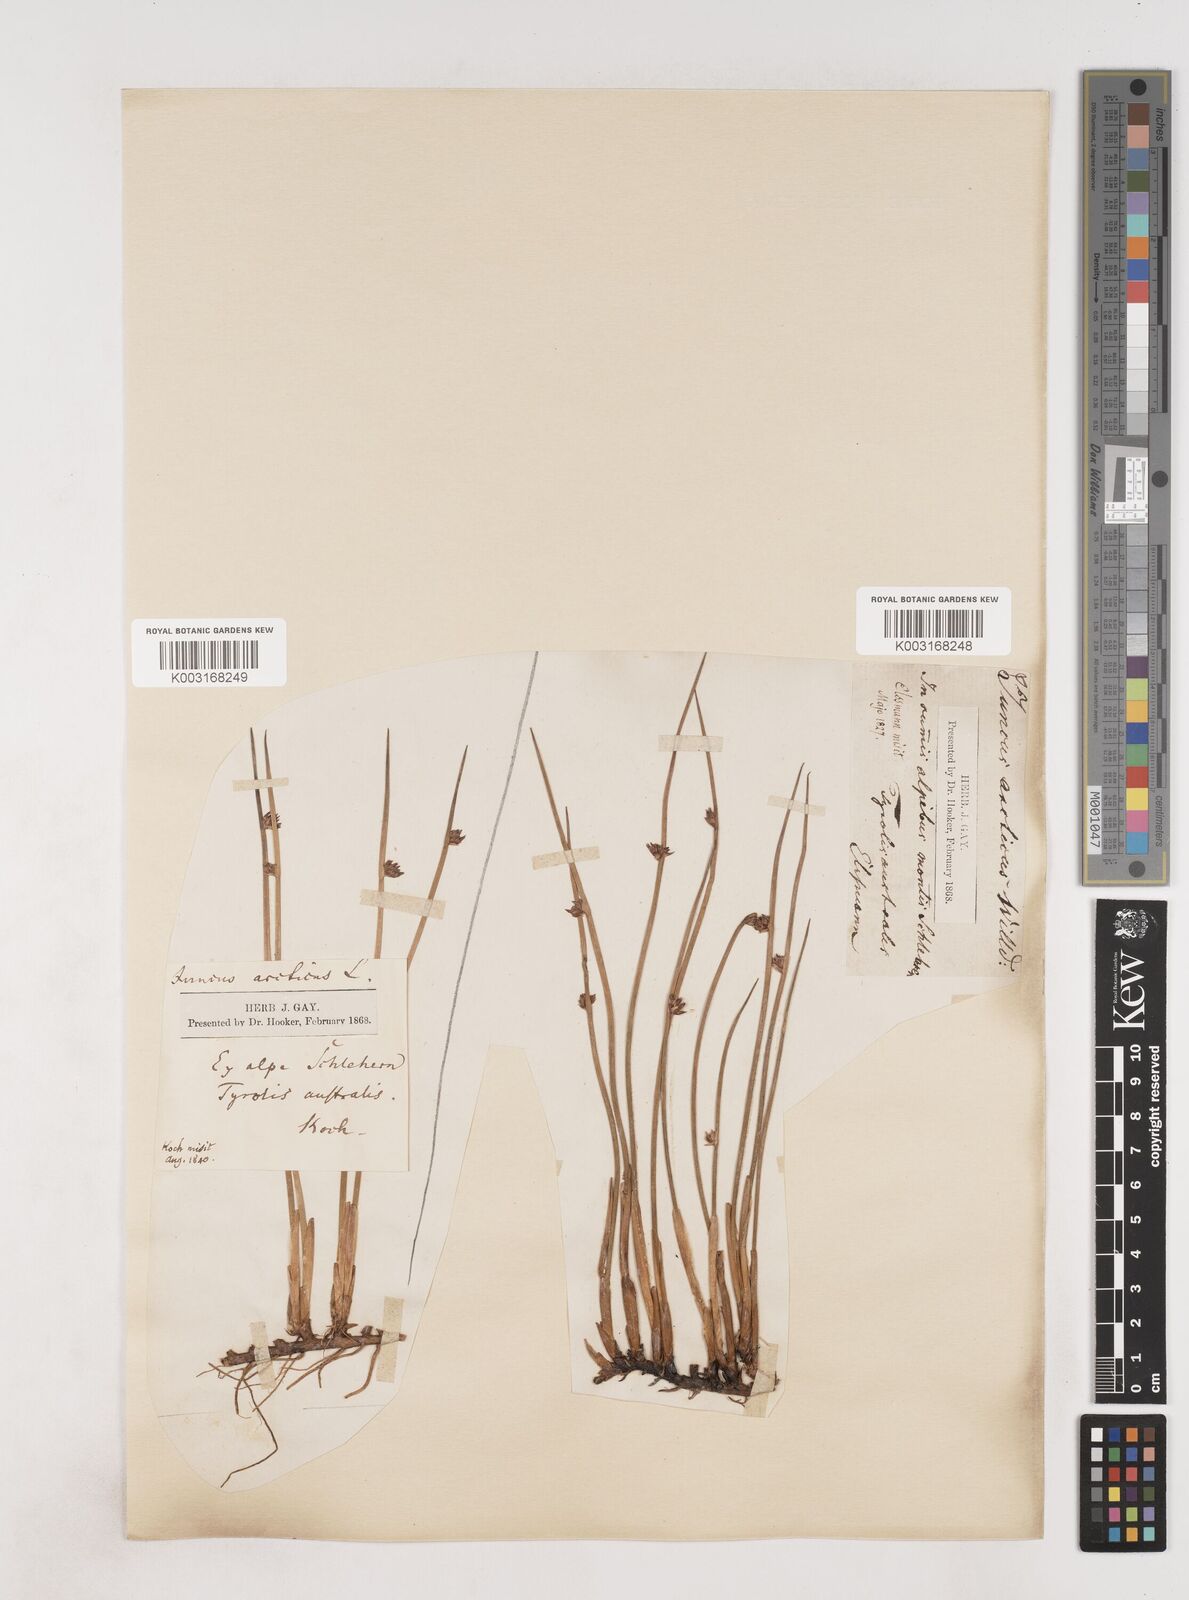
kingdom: Plantae
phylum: Tracheophyta
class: Liliopsida
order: Poales
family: Juncaceae
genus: Juncus
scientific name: Juncus arcticus
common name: Arctic rush
